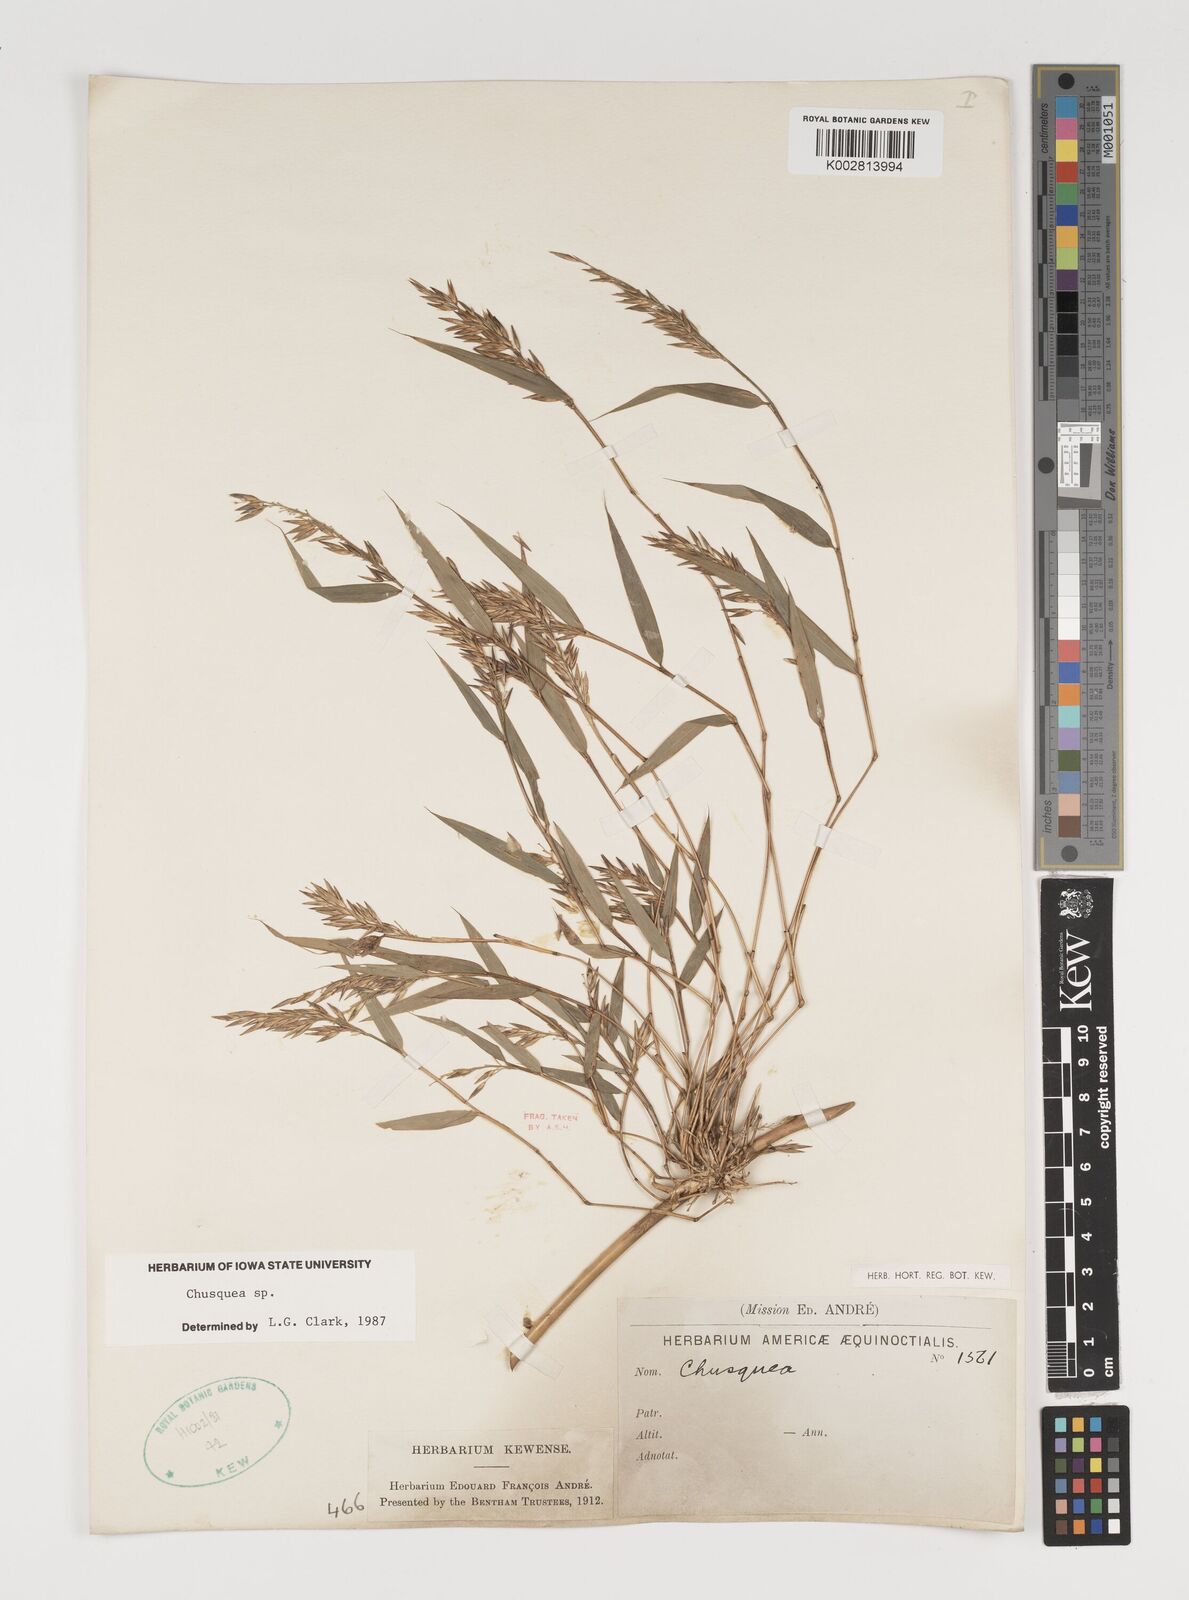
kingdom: Plantae
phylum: Tracheophyta
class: Liliopsida
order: Poales
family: Poaceae
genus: Chusquea
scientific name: Chusquea
